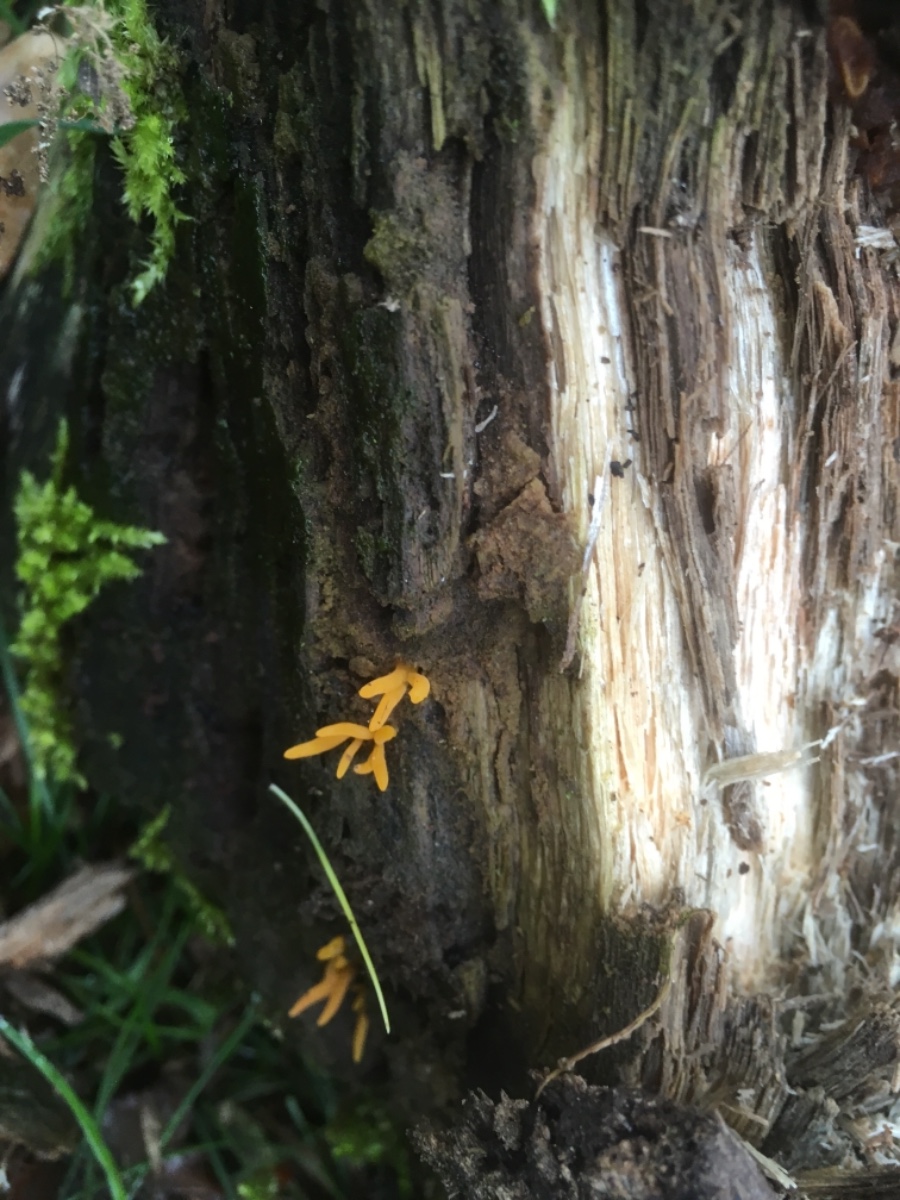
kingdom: Fungi
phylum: Basidiomycota
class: Dacrymycetes
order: Dacrymycetales
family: Dacrymycetaceae
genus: Calocera
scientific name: Calocera cornea
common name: liden guldgaffel
